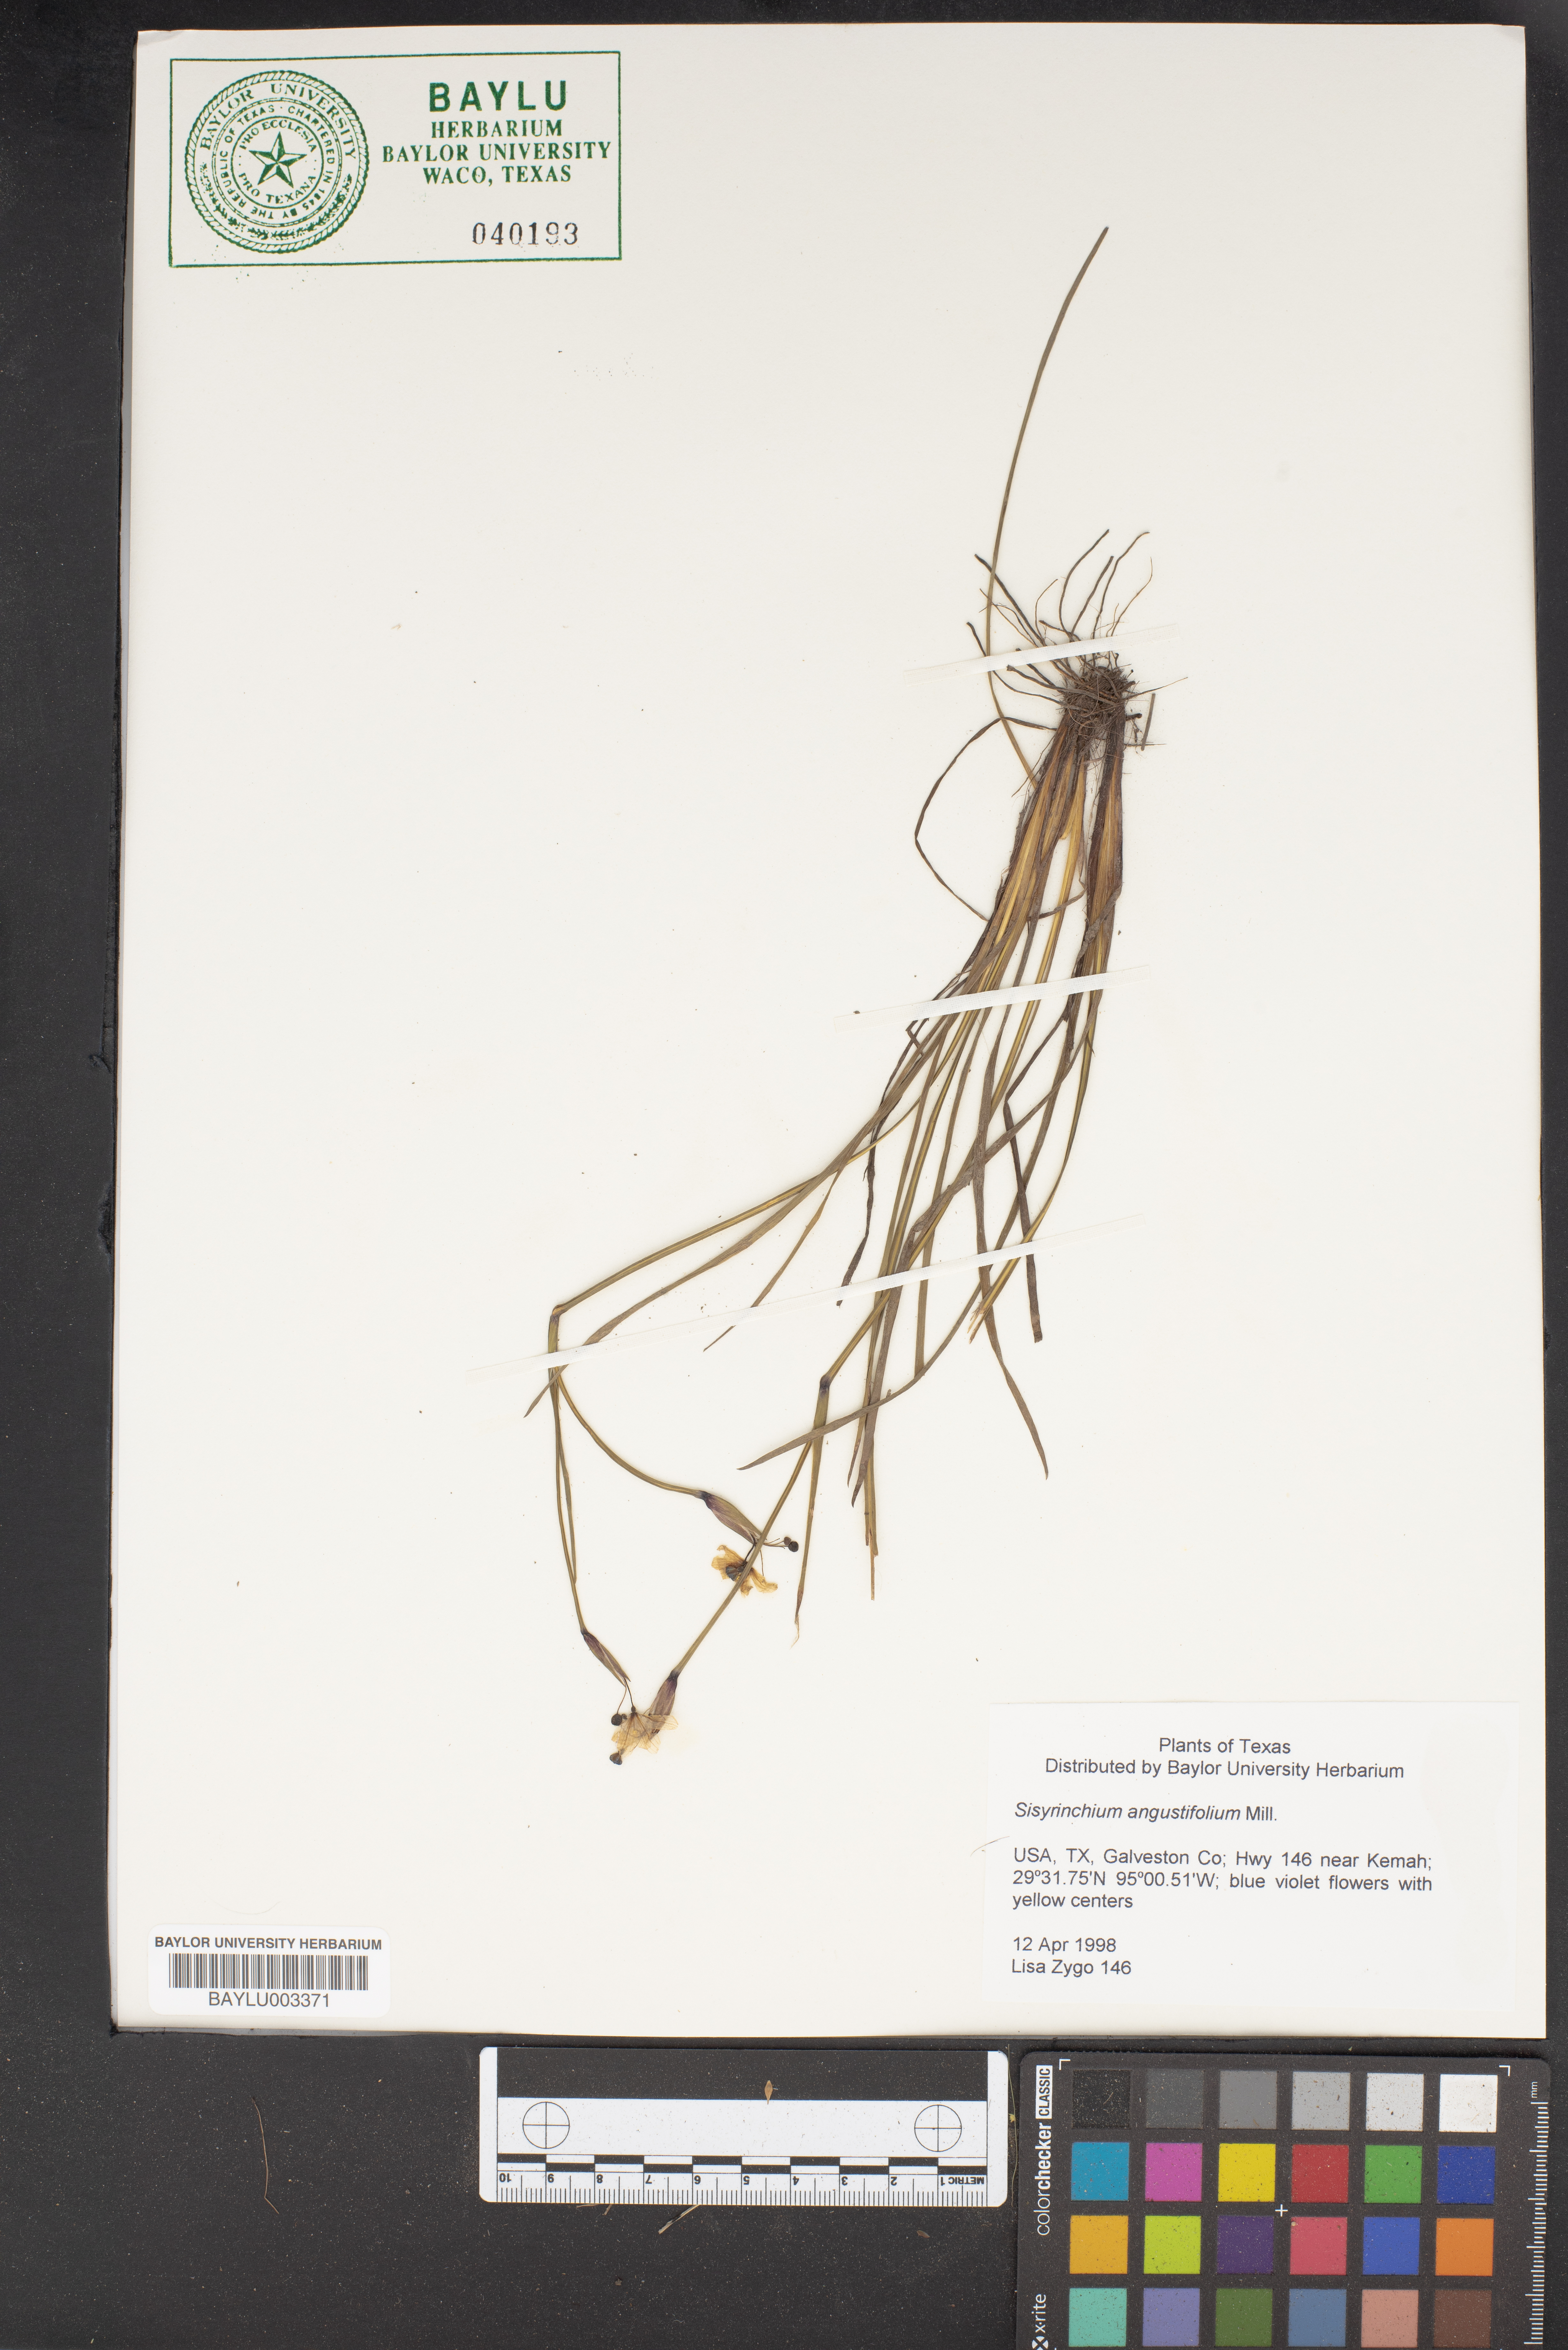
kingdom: Plantae
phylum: Tracheophyta
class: Liliopsida
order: Asparagales
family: Iridaceae
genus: Sisyrinchium
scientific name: Sisyrinchium angustifolium
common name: Narrow-leaf blue-eyed-grass
